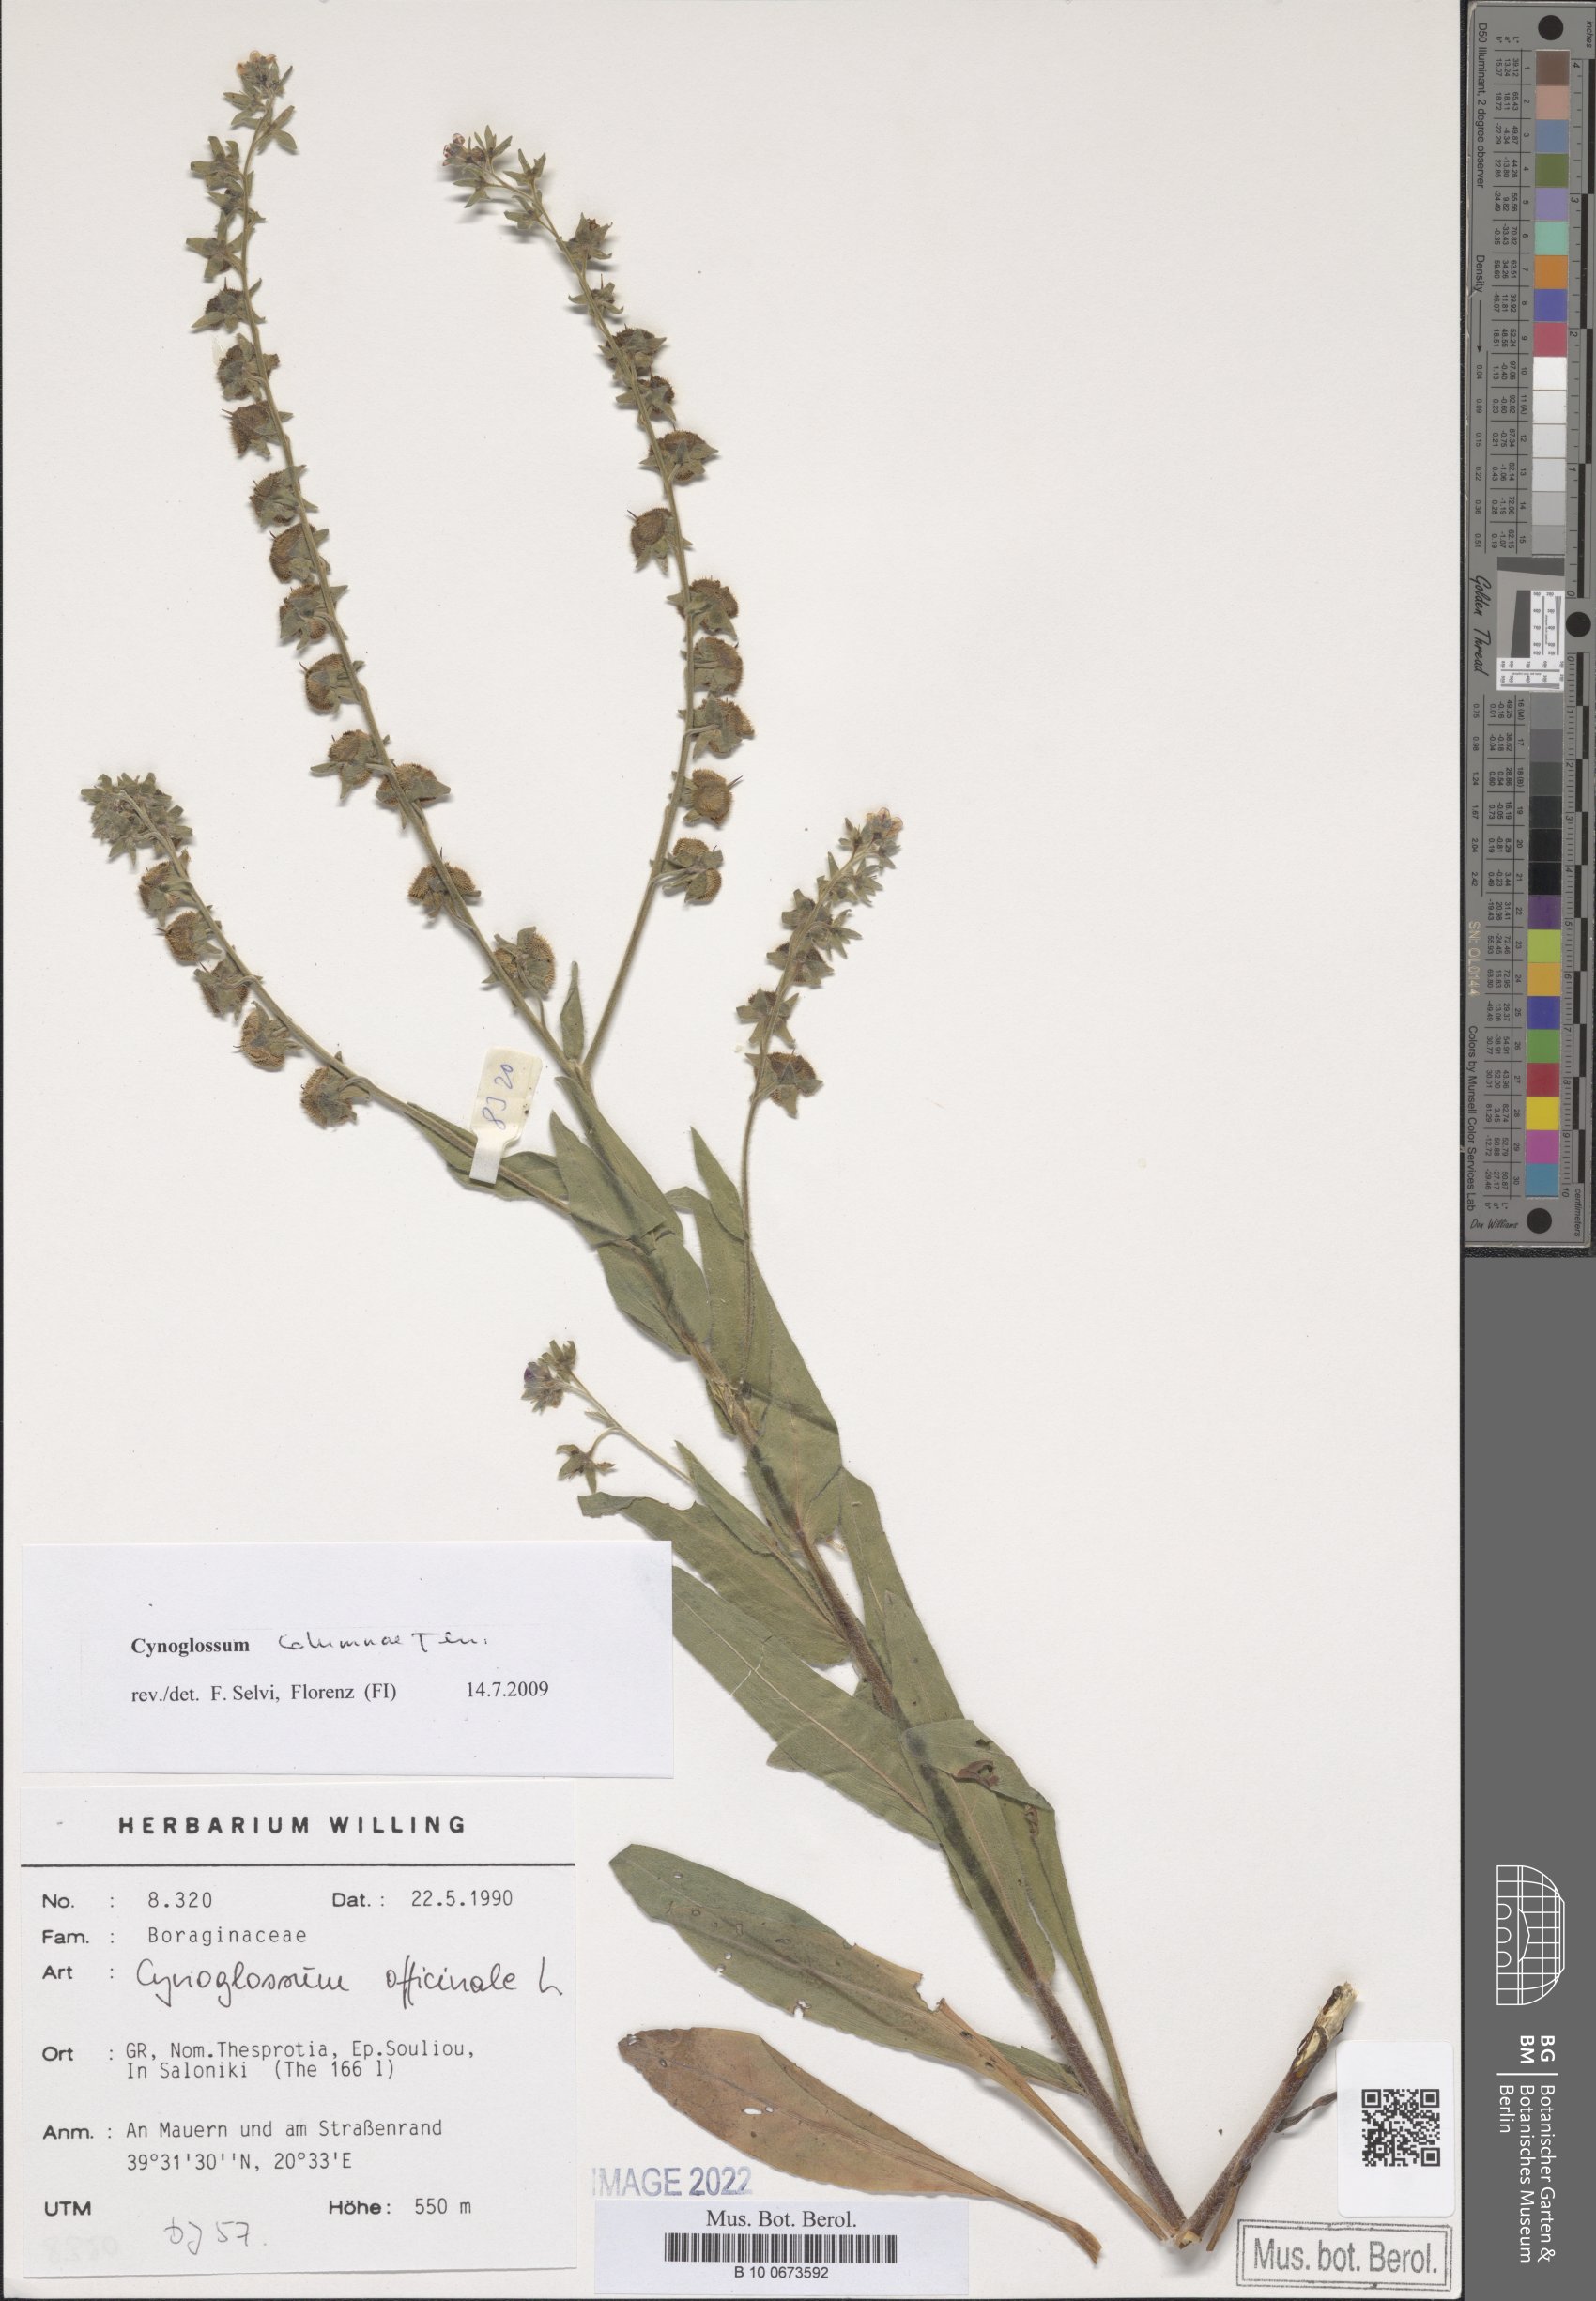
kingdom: Plantae
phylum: Tracheophyta
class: Magnoliopsida
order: Boraginales
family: Boraginaceae
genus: Rindera
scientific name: Rindera columnae
